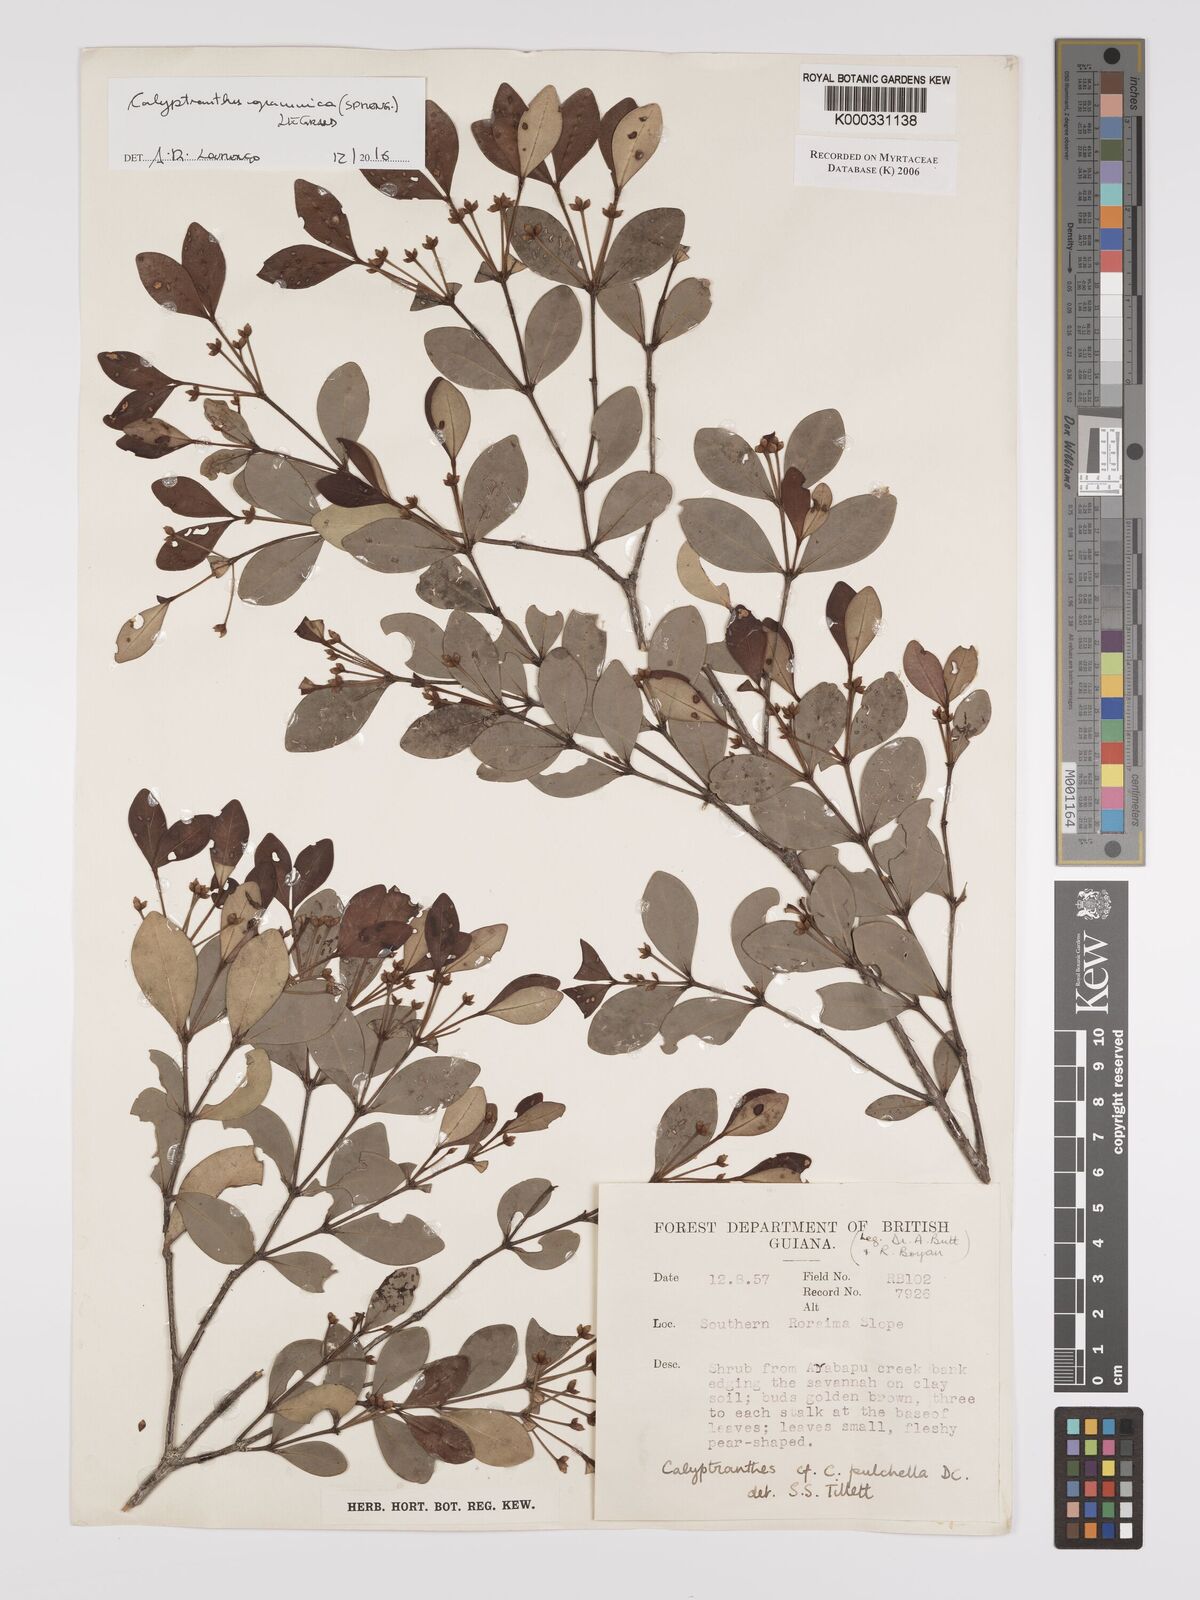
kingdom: Plantae
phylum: Tracheophyta
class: Magnoliopsida
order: Myrtales
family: Myrtaceae
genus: Myrcia
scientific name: Myrcia pulchella
